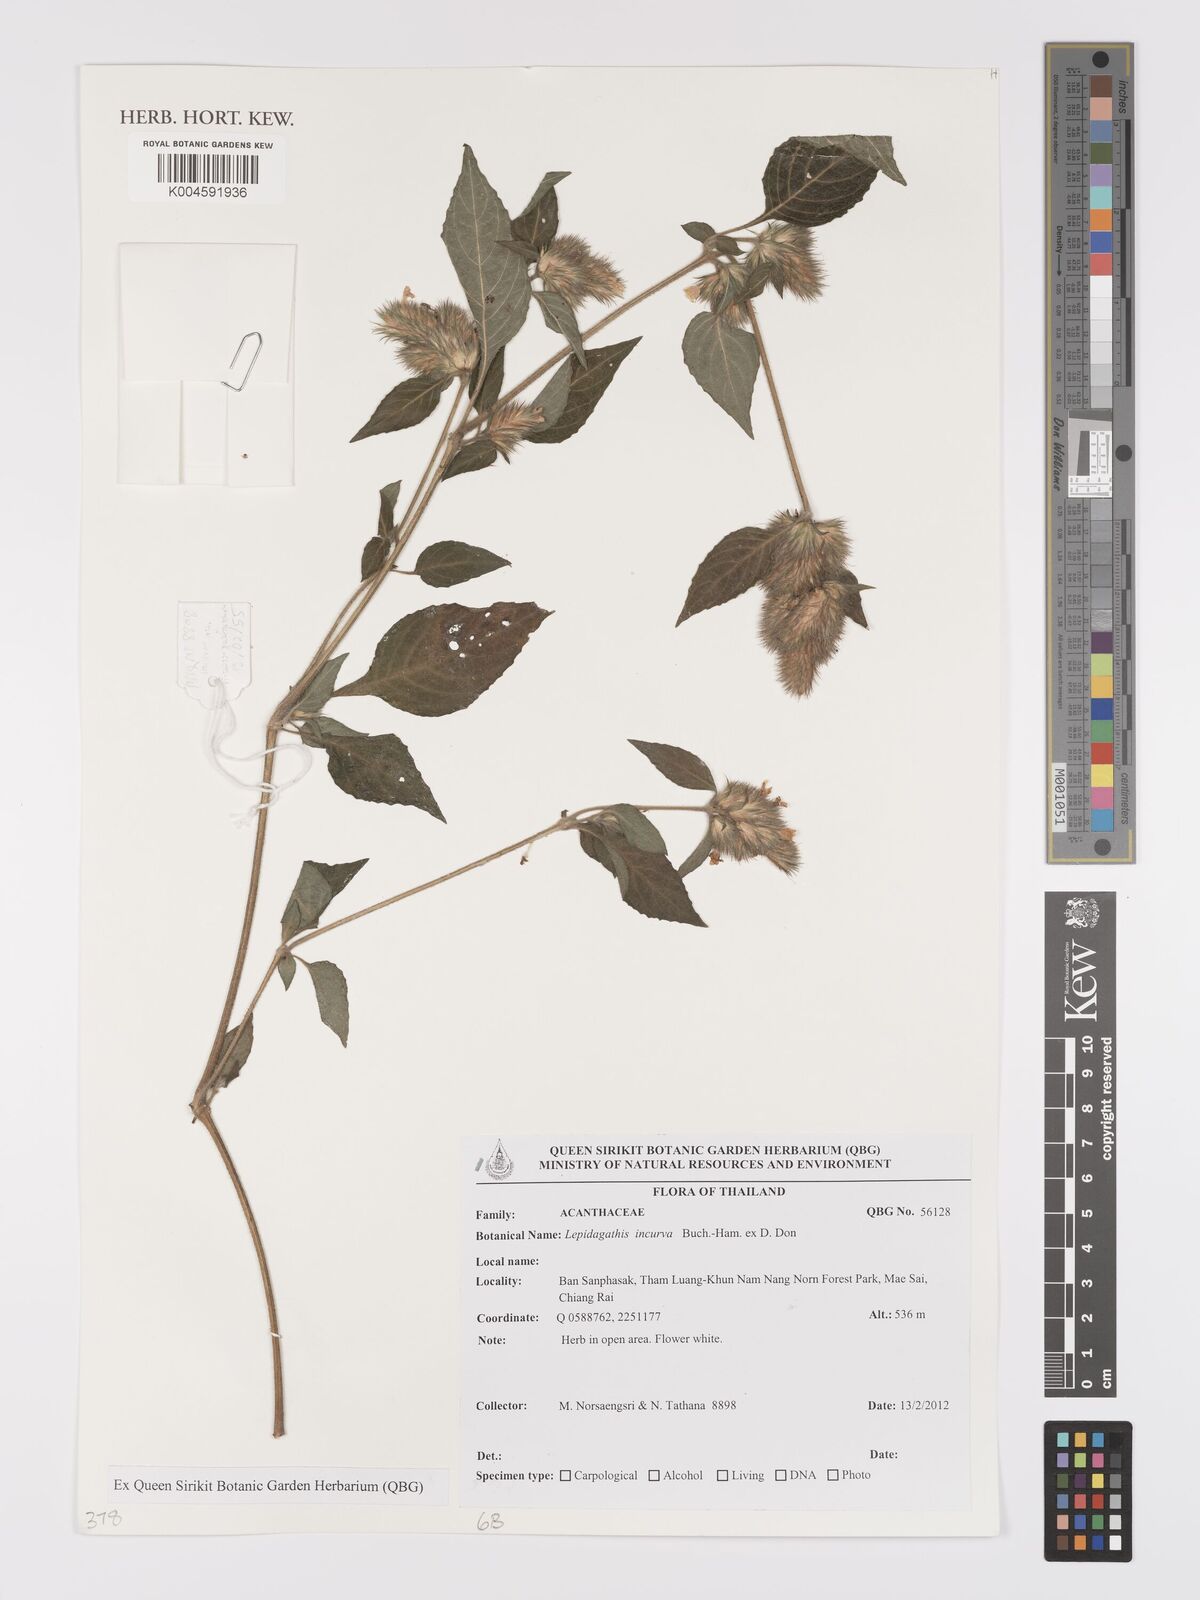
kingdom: Plantae
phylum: Tracheophyta
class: Magnoliopsida
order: Lamiales
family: Acanthaceae
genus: Lepidagathis
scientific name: Lepidagathis incurva
